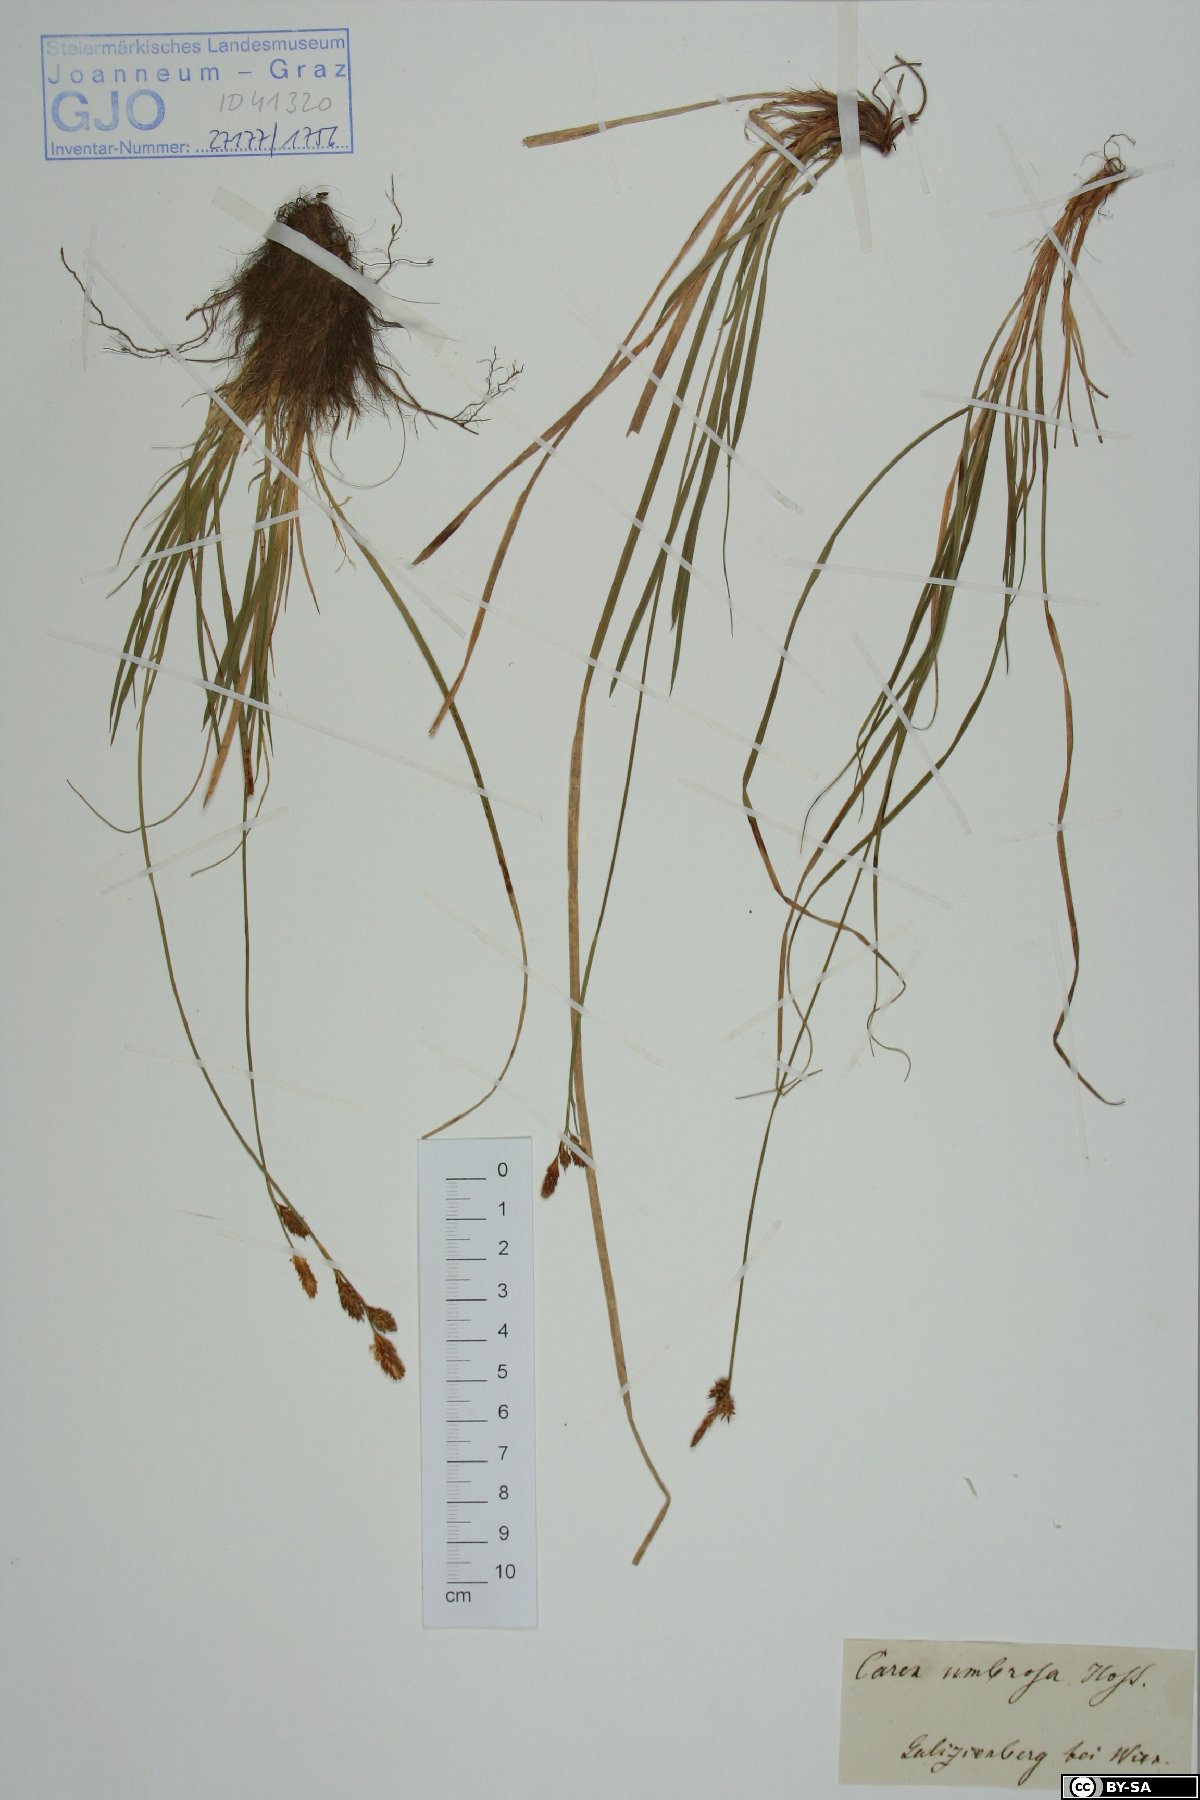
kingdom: Plantae
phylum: Tracheophyta
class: Liliopsida
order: Poales
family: Cyperaceae
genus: Carex
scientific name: Carex umbrosa
